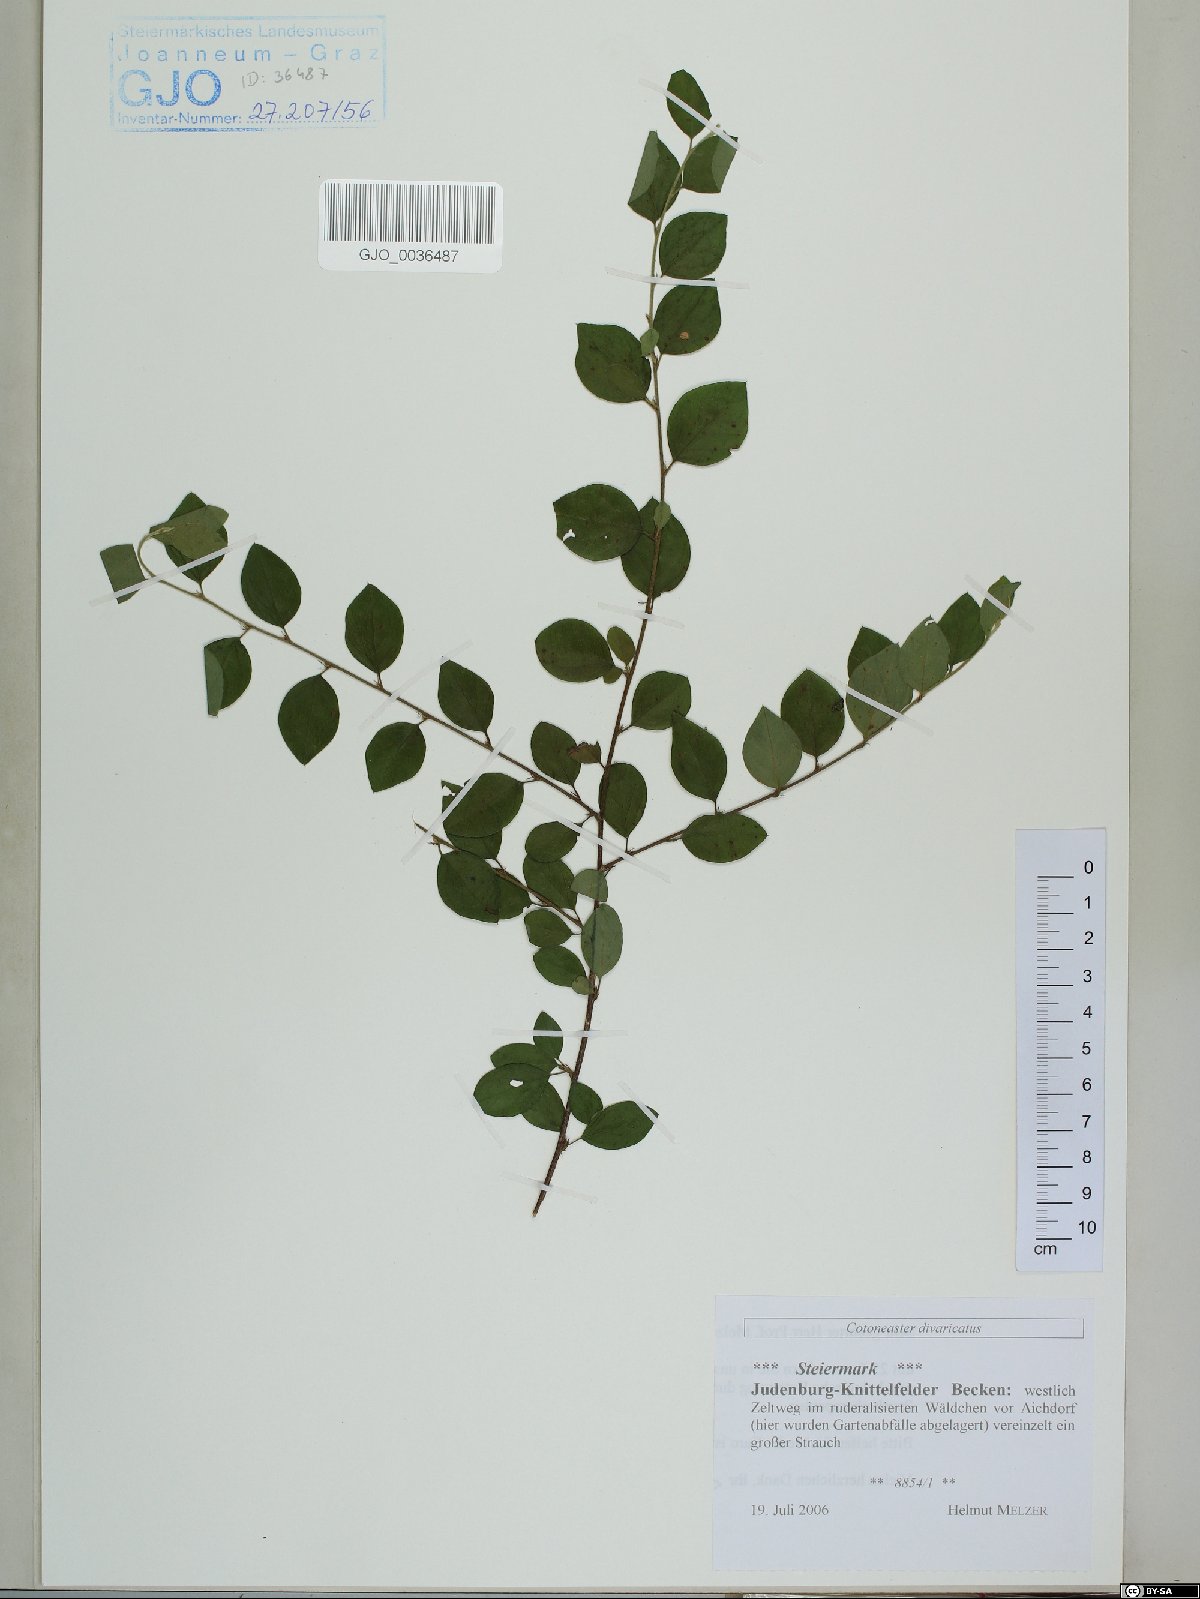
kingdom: Plantae
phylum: Tracheophyta
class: Magnoliopsida
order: Rosales
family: Rosaceae
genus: Cotoneaster
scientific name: Cotoneaster divaricatus
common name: Spreading cotoneaster
